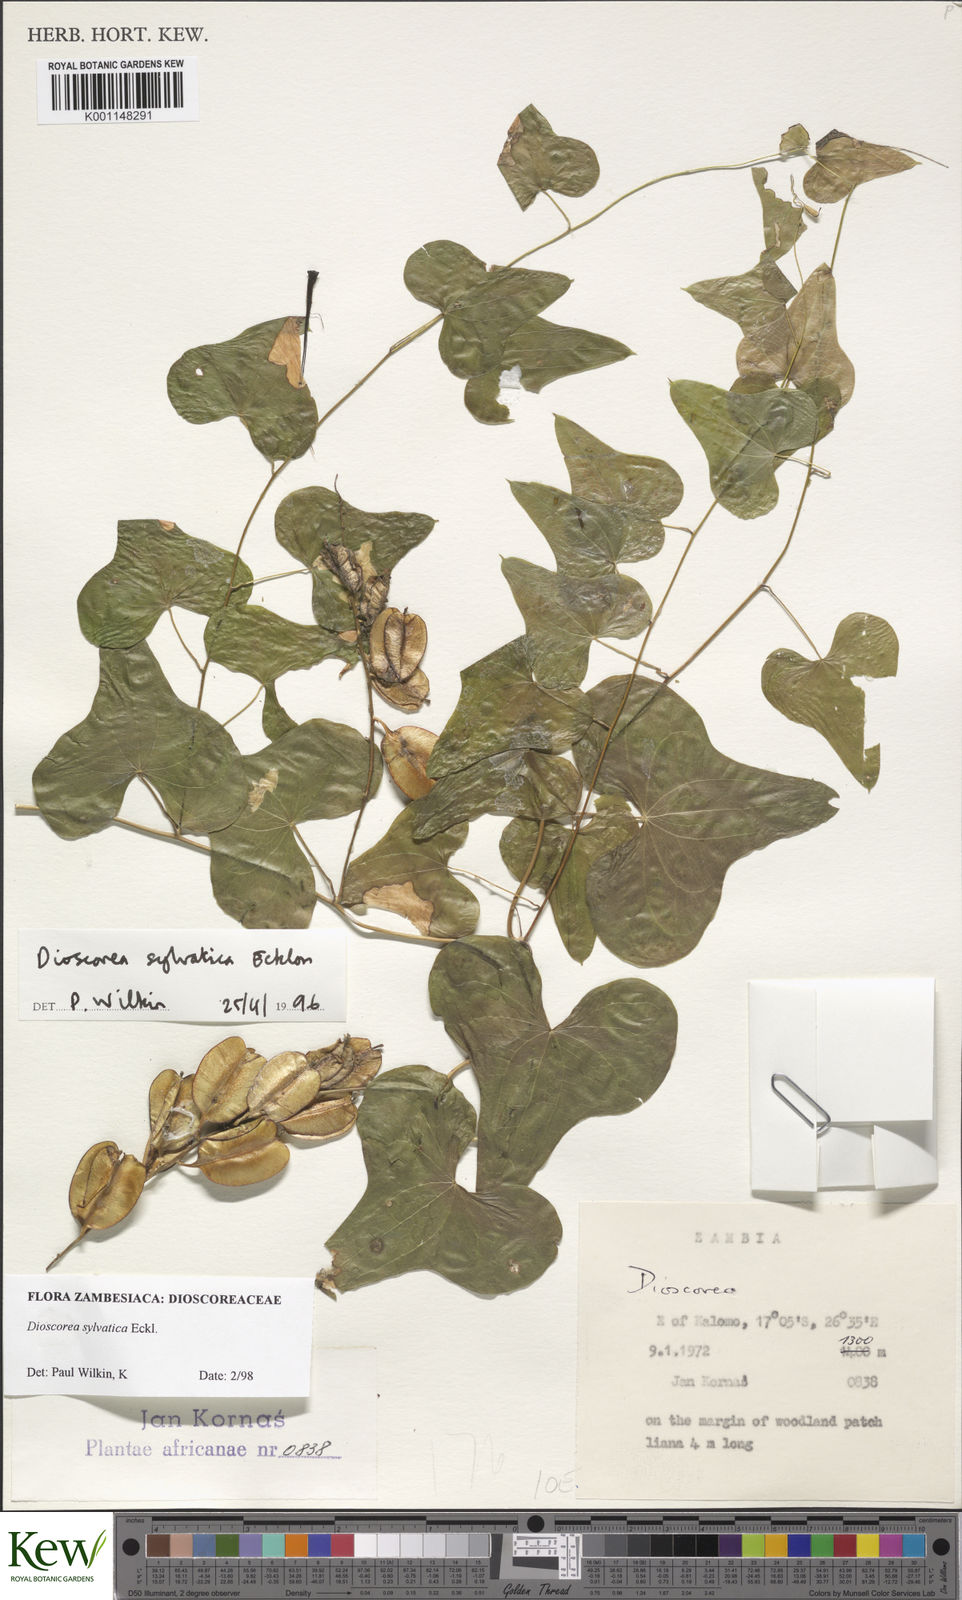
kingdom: Plantae
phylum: Tracheophyta
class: Liliopsida
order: Dioscoreales
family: Dioscoreaceae
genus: Dioscorea
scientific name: Dioscorea sylvatica
